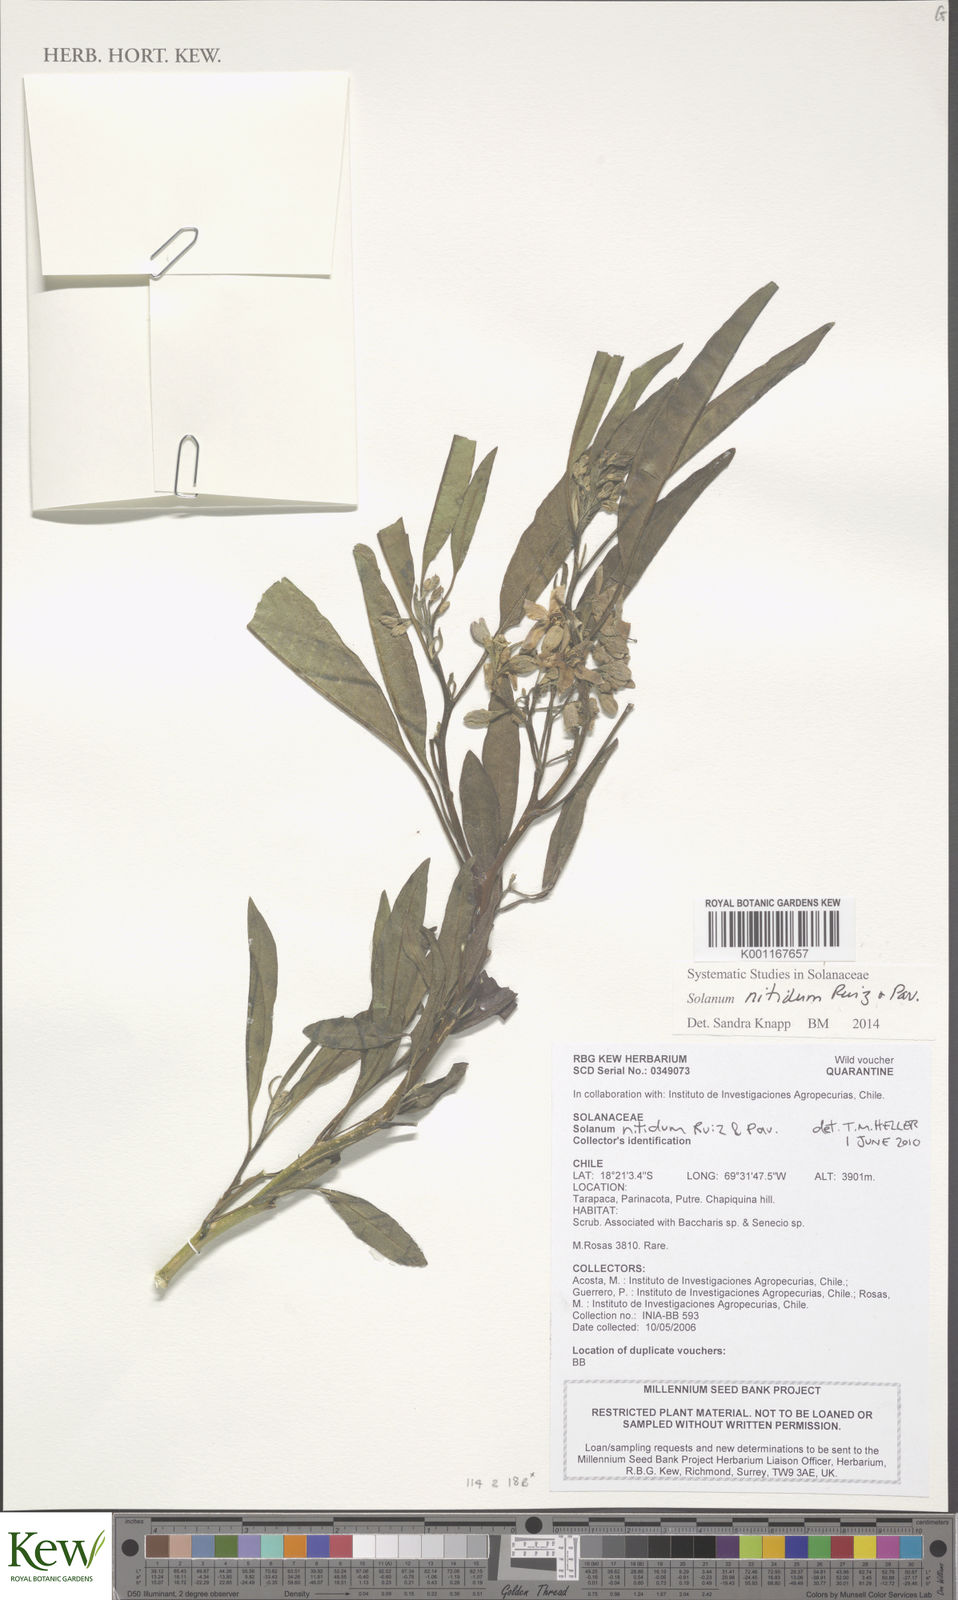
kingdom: Plantae
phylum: Tracheophyta
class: Magnoliopsida
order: Solanales
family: Solanaceae
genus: Solanum
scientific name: Solanum nitidum
